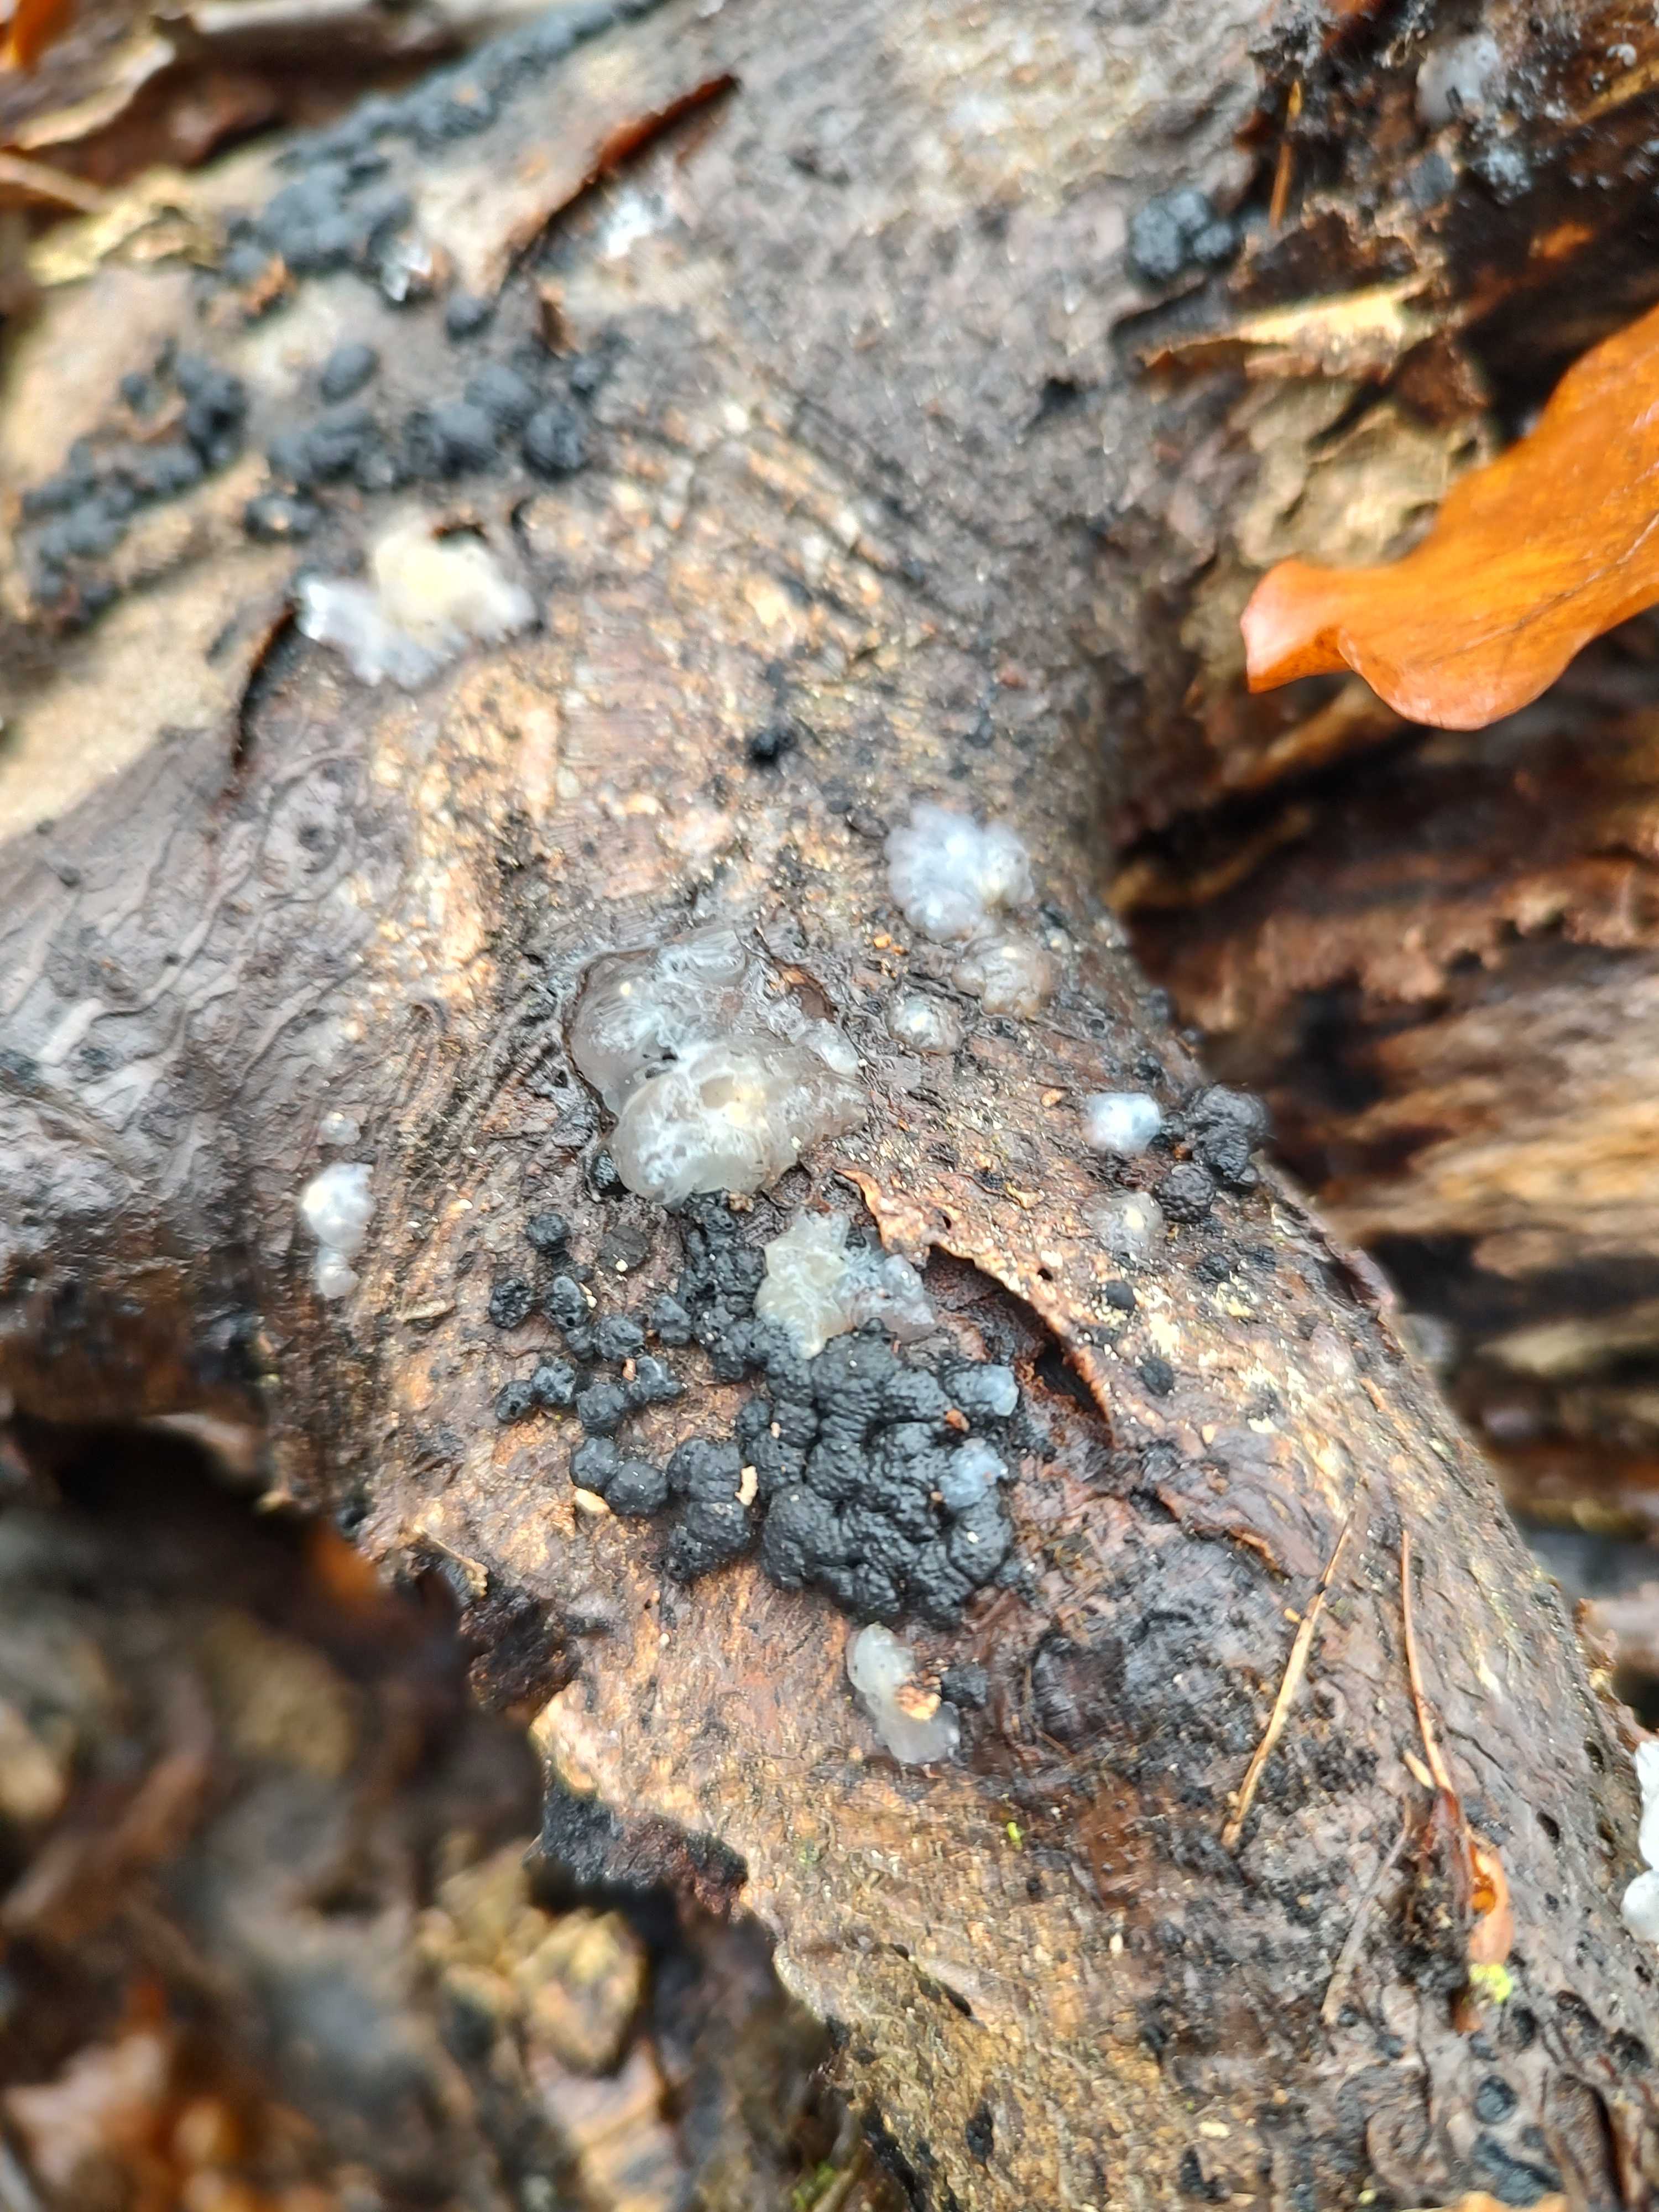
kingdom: Fungi
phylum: Basidiomycota
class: Agaricomycetes
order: Auriculariales
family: Hyaloriaceae
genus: Myxarium
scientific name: Myxarium nucleatum
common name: klar bævretop
